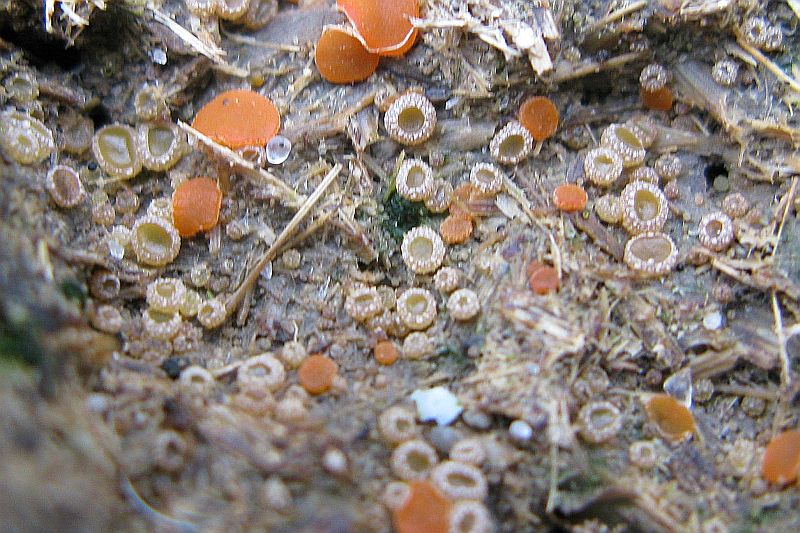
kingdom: Fungi
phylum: Ascomycota
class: Pezizomycetes
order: Pezizales
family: Ascobolaceae
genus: Ascobolus
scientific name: Ascobolus crenulatus
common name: gullig prikbæger
